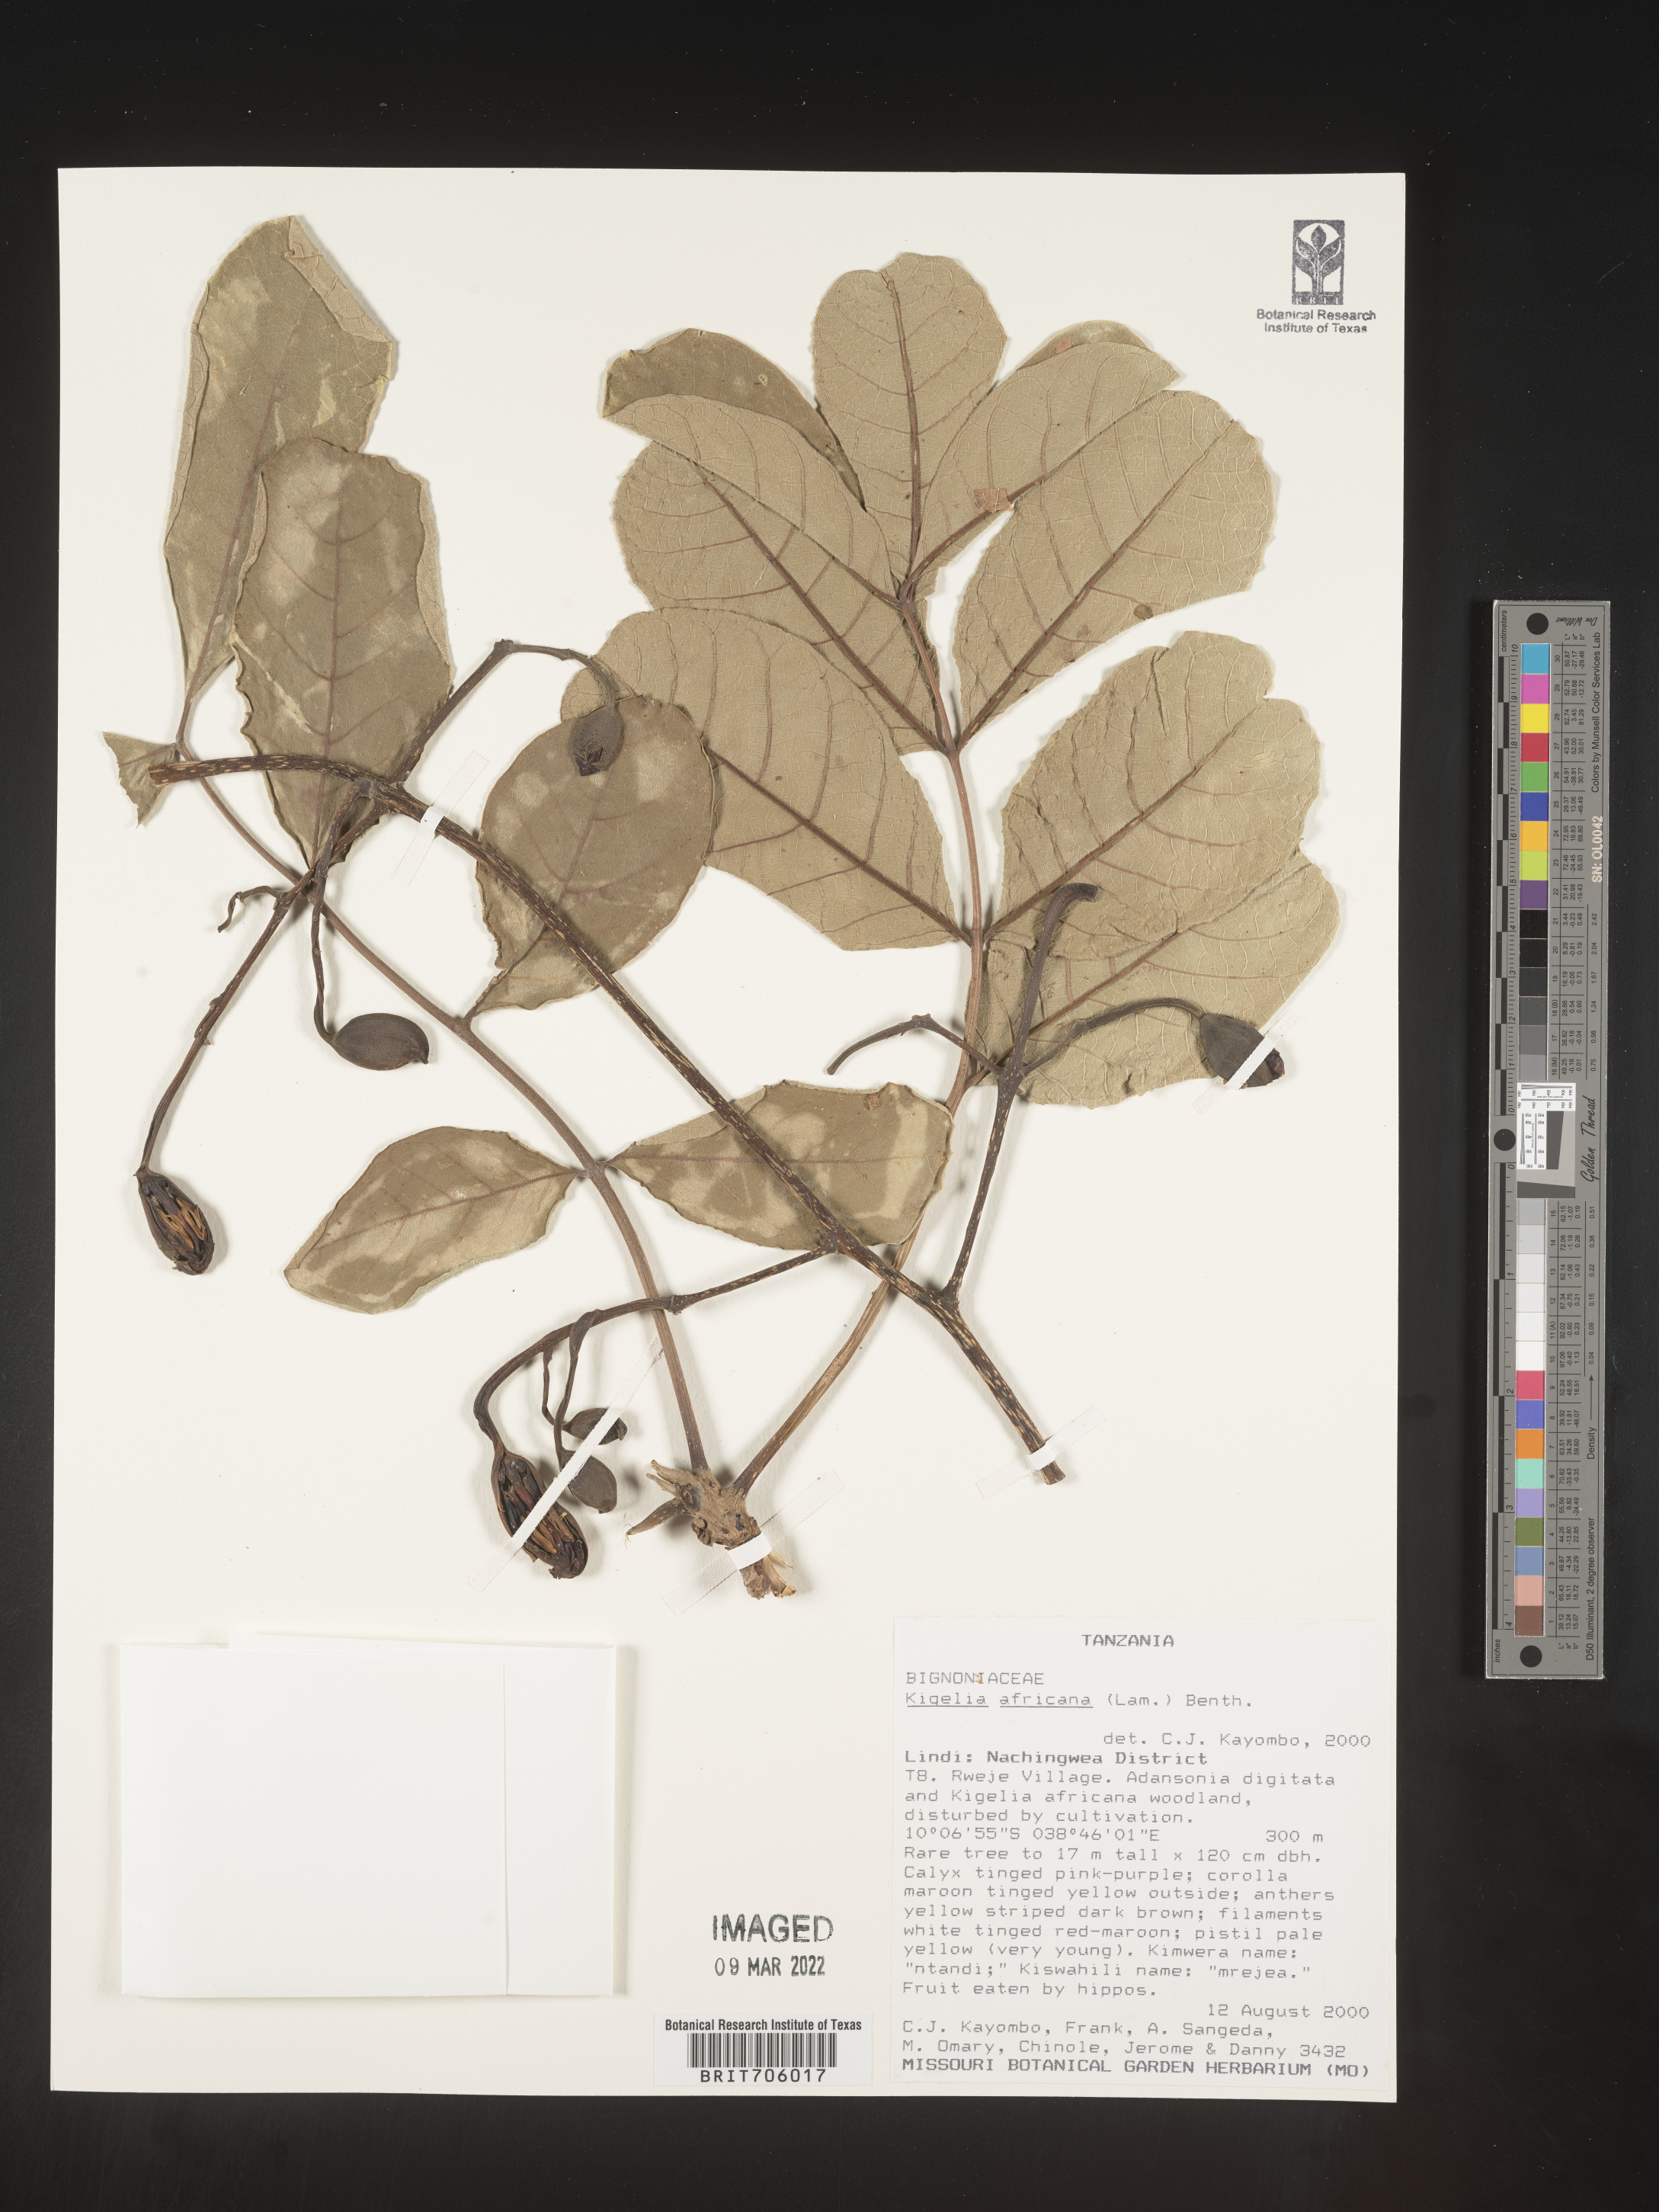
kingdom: Plantae
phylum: Tracheophyta
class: Magnoliopsida
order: Lamiales
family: Bignoniaceae
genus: Kigelia
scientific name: Kigelia
